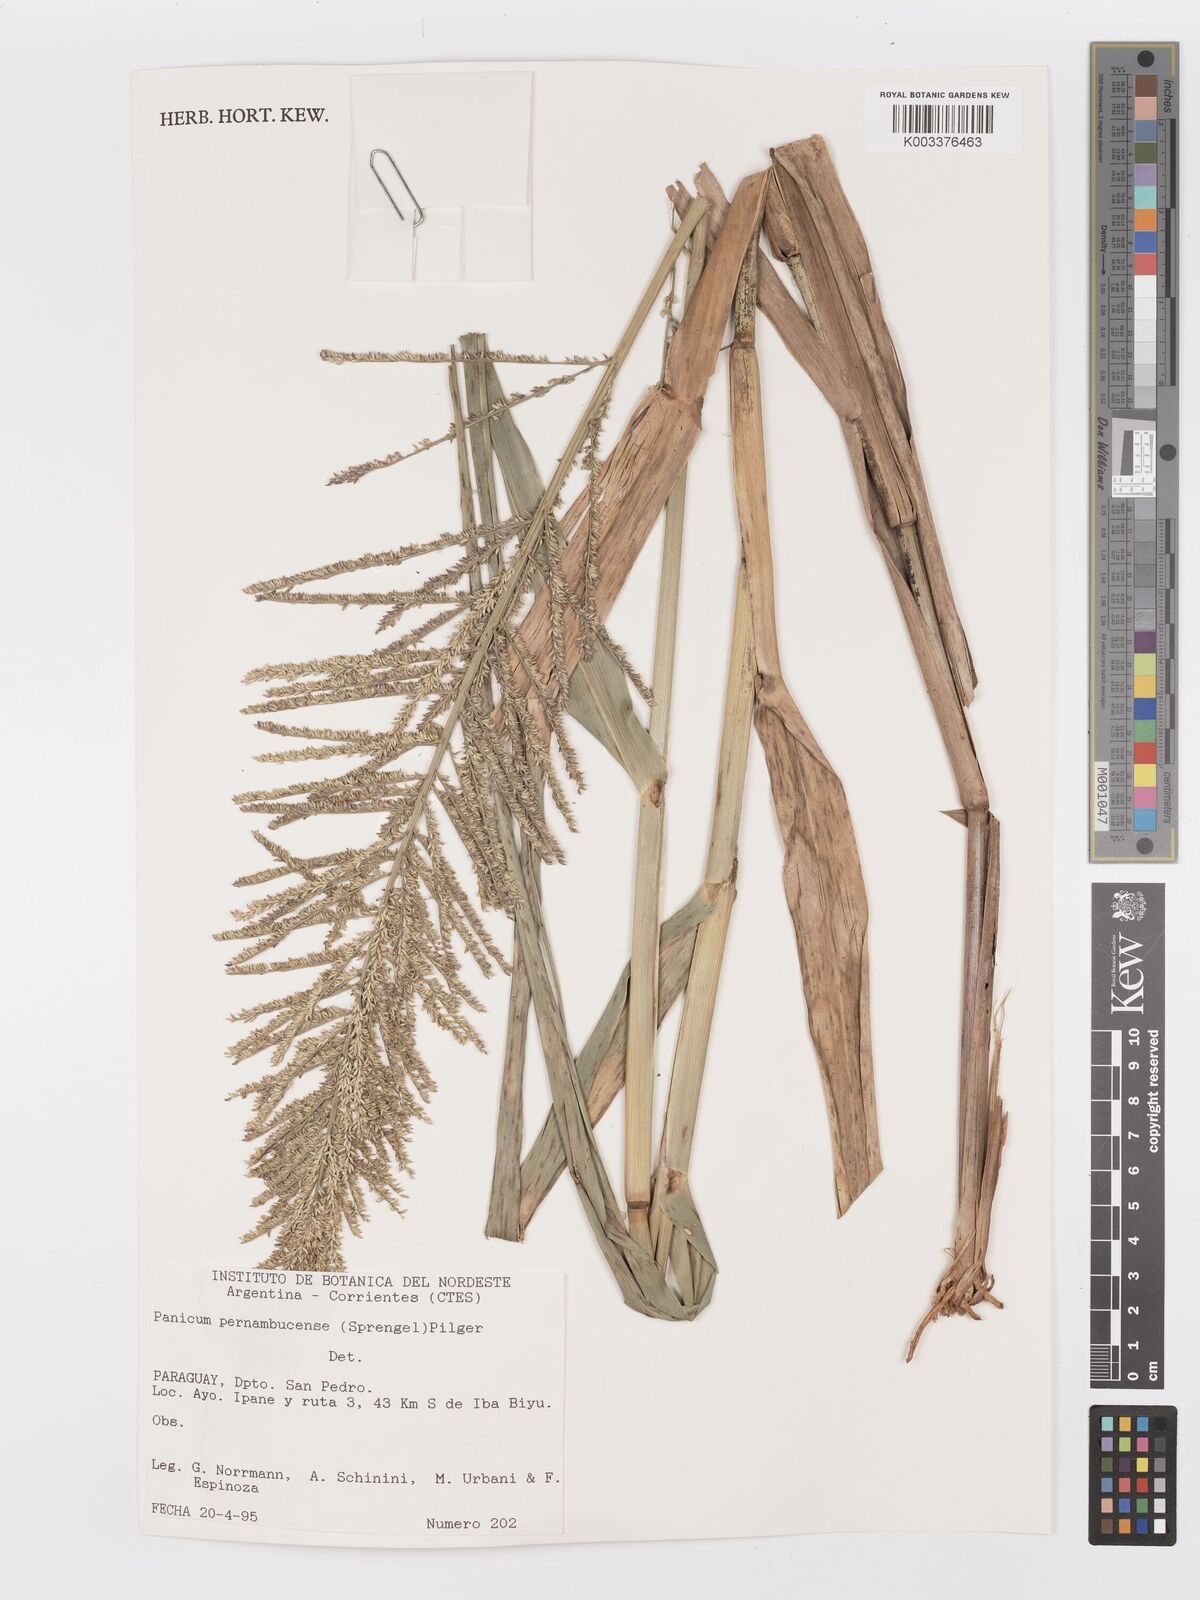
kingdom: Plantae
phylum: Tracheophyta
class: Liliopsida
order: Poales
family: Poaceae
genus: Hymenachne
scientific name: Hymenachne pernambucensis
